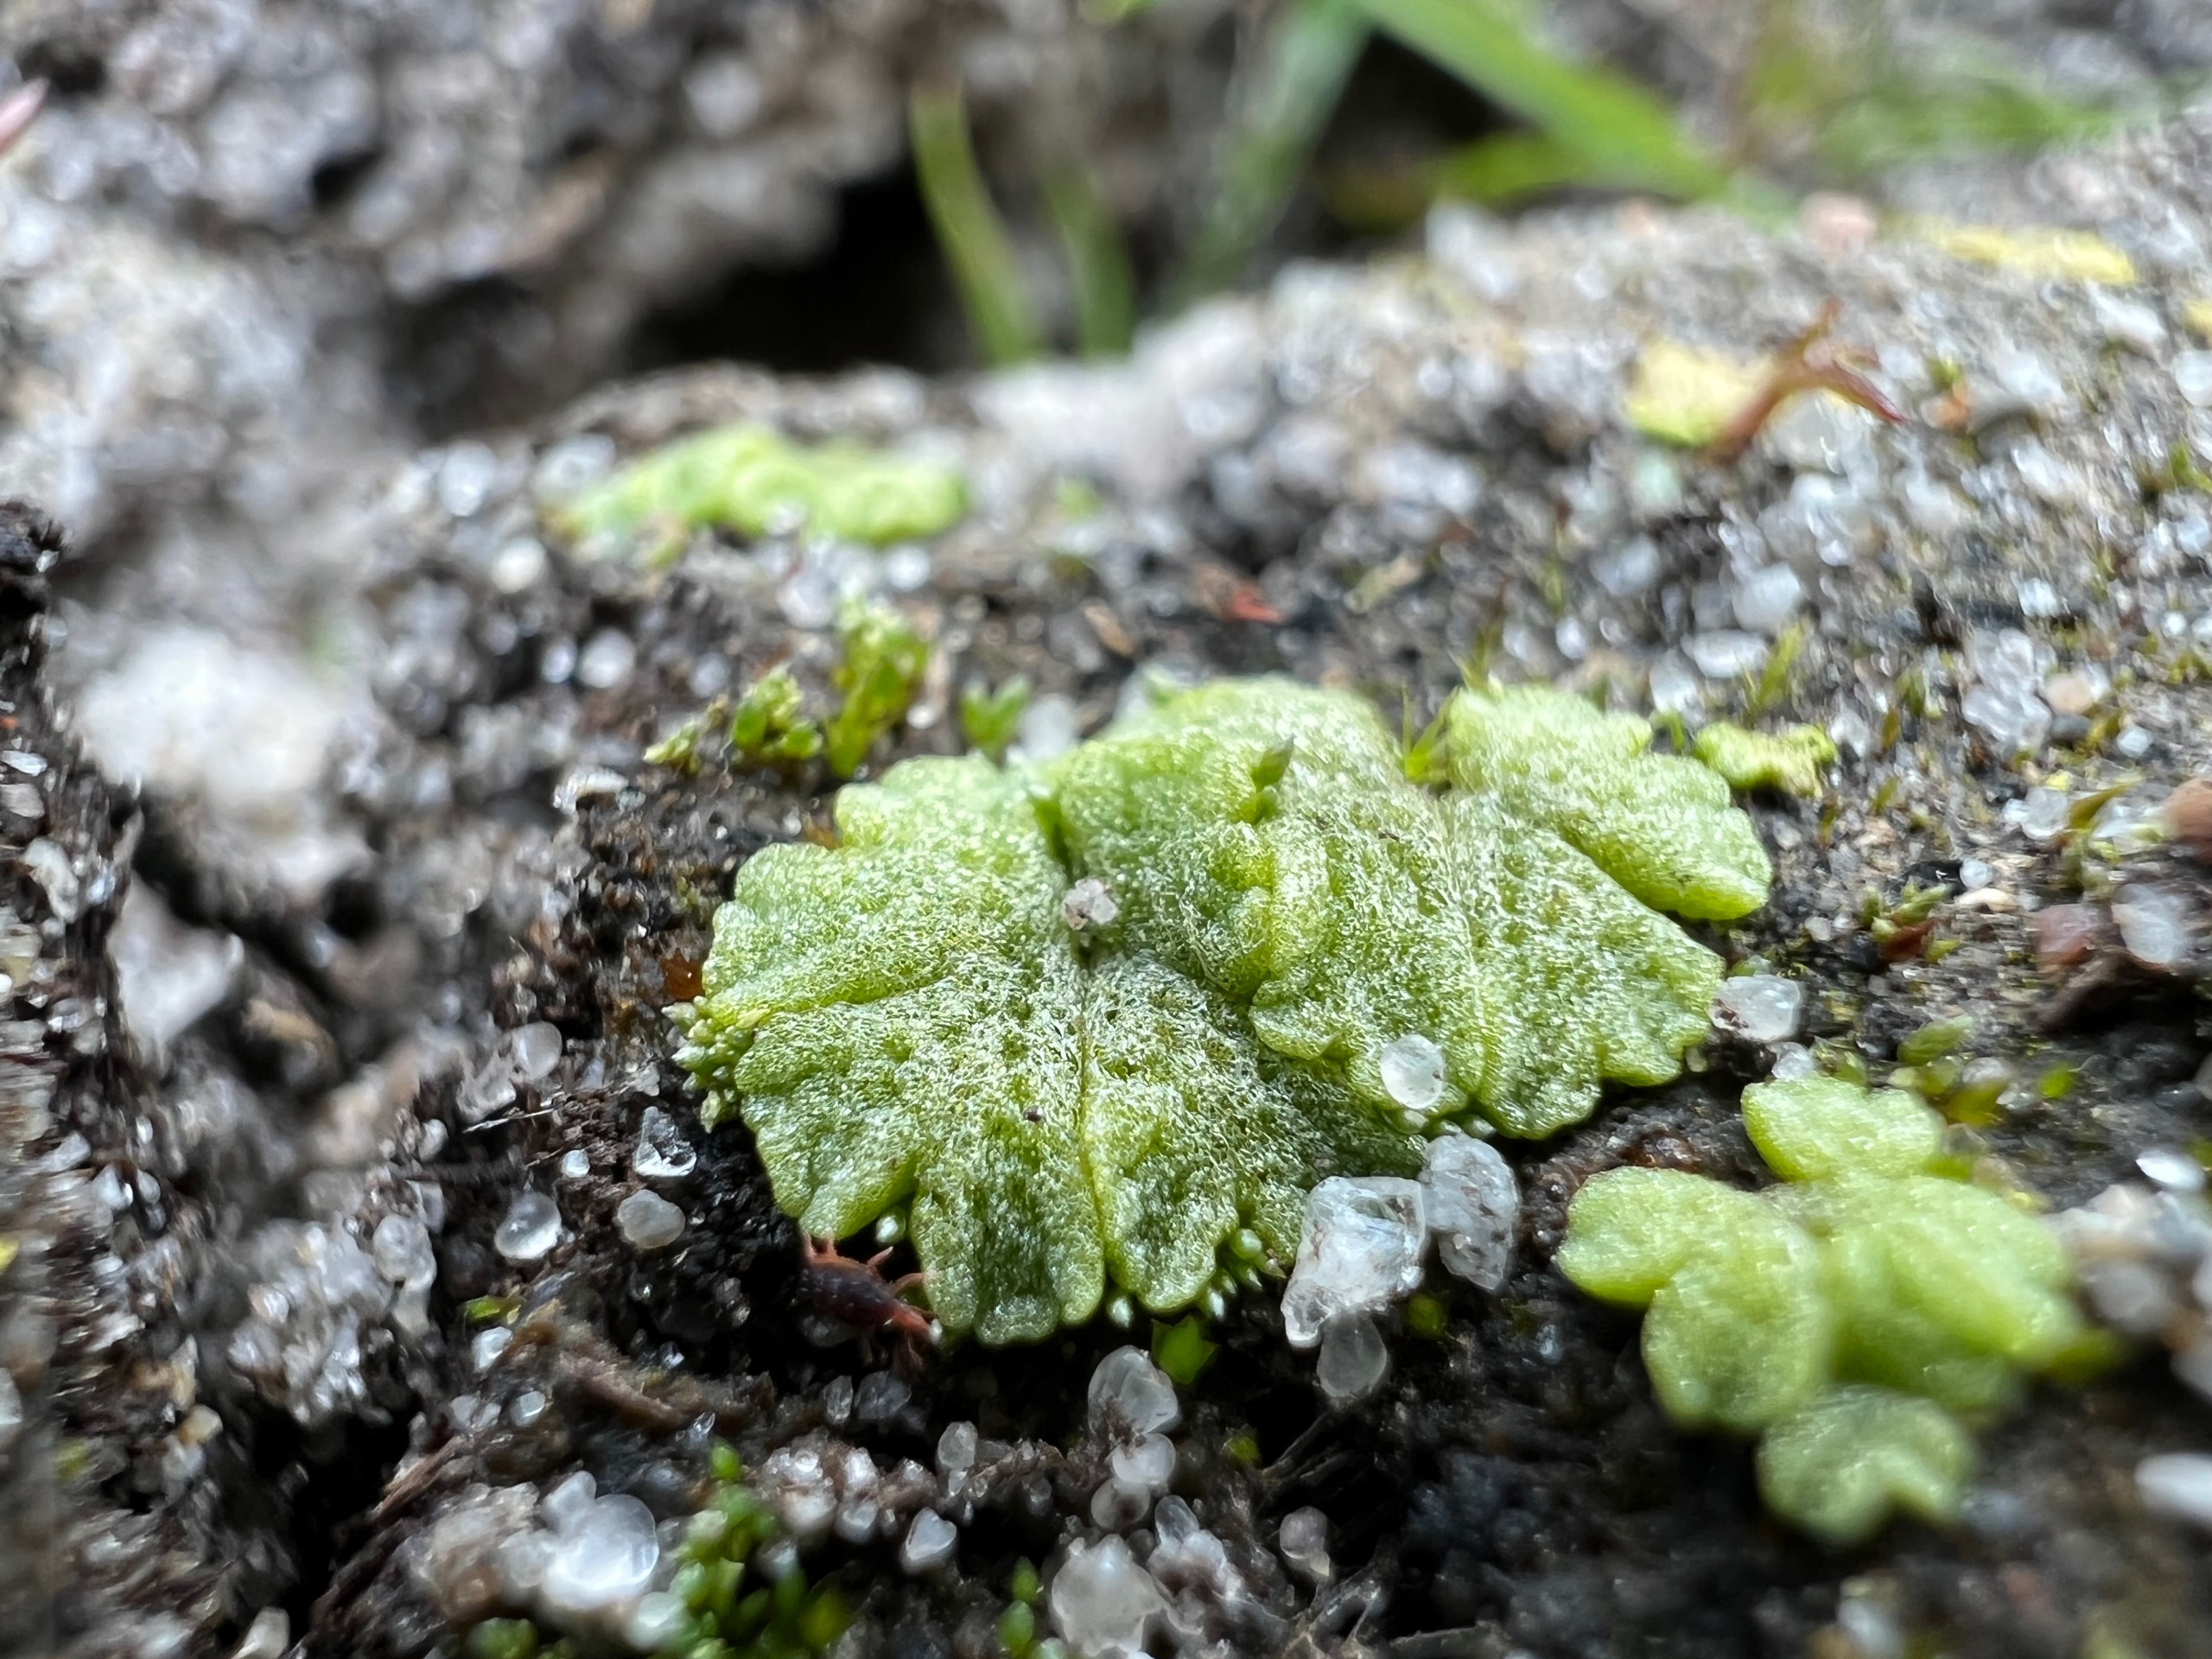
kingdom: Plantae
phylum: Marchantiophyta
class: Marchantiopsida
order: Marchantiales
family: Ricciaceae
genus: Riccia
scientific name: Riccia cavernosa
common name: Grubet stjerneløv
